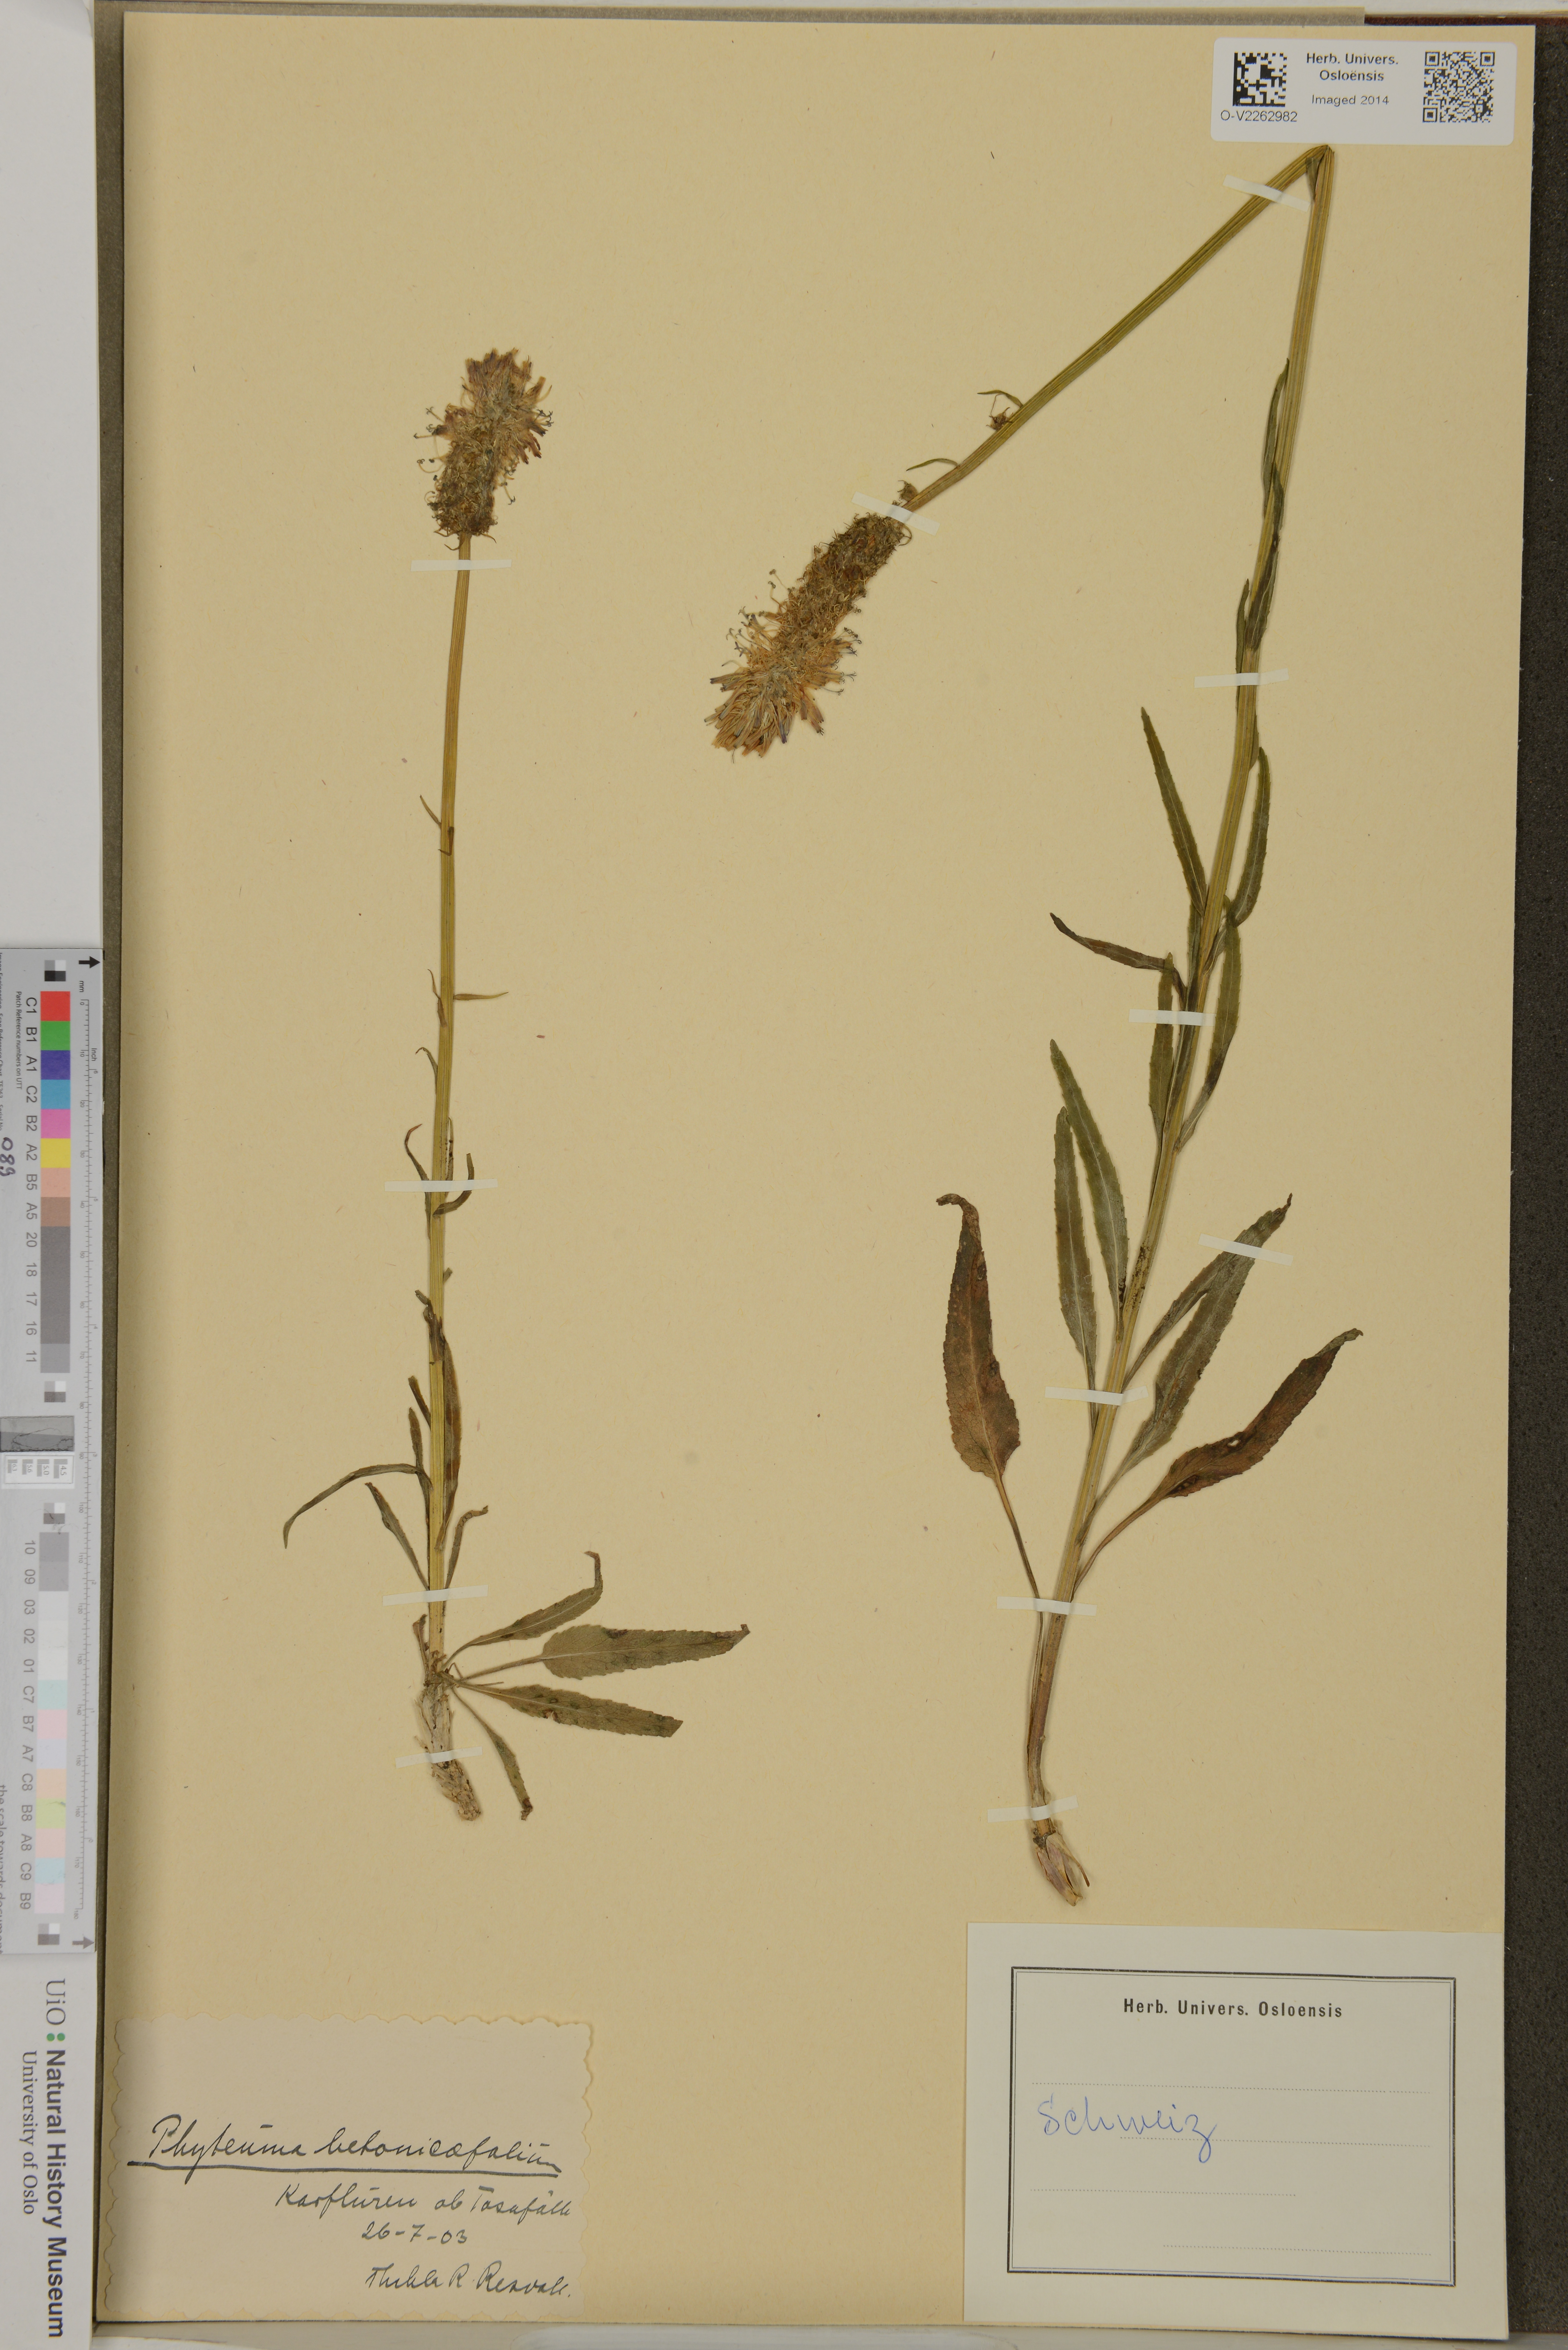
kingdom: Plantae
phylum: Tracheophyta
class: Magnoliopsida
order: Asterales
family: Campanulaceae
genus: Phyteuma
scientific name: Phyteuma betonicifolium
